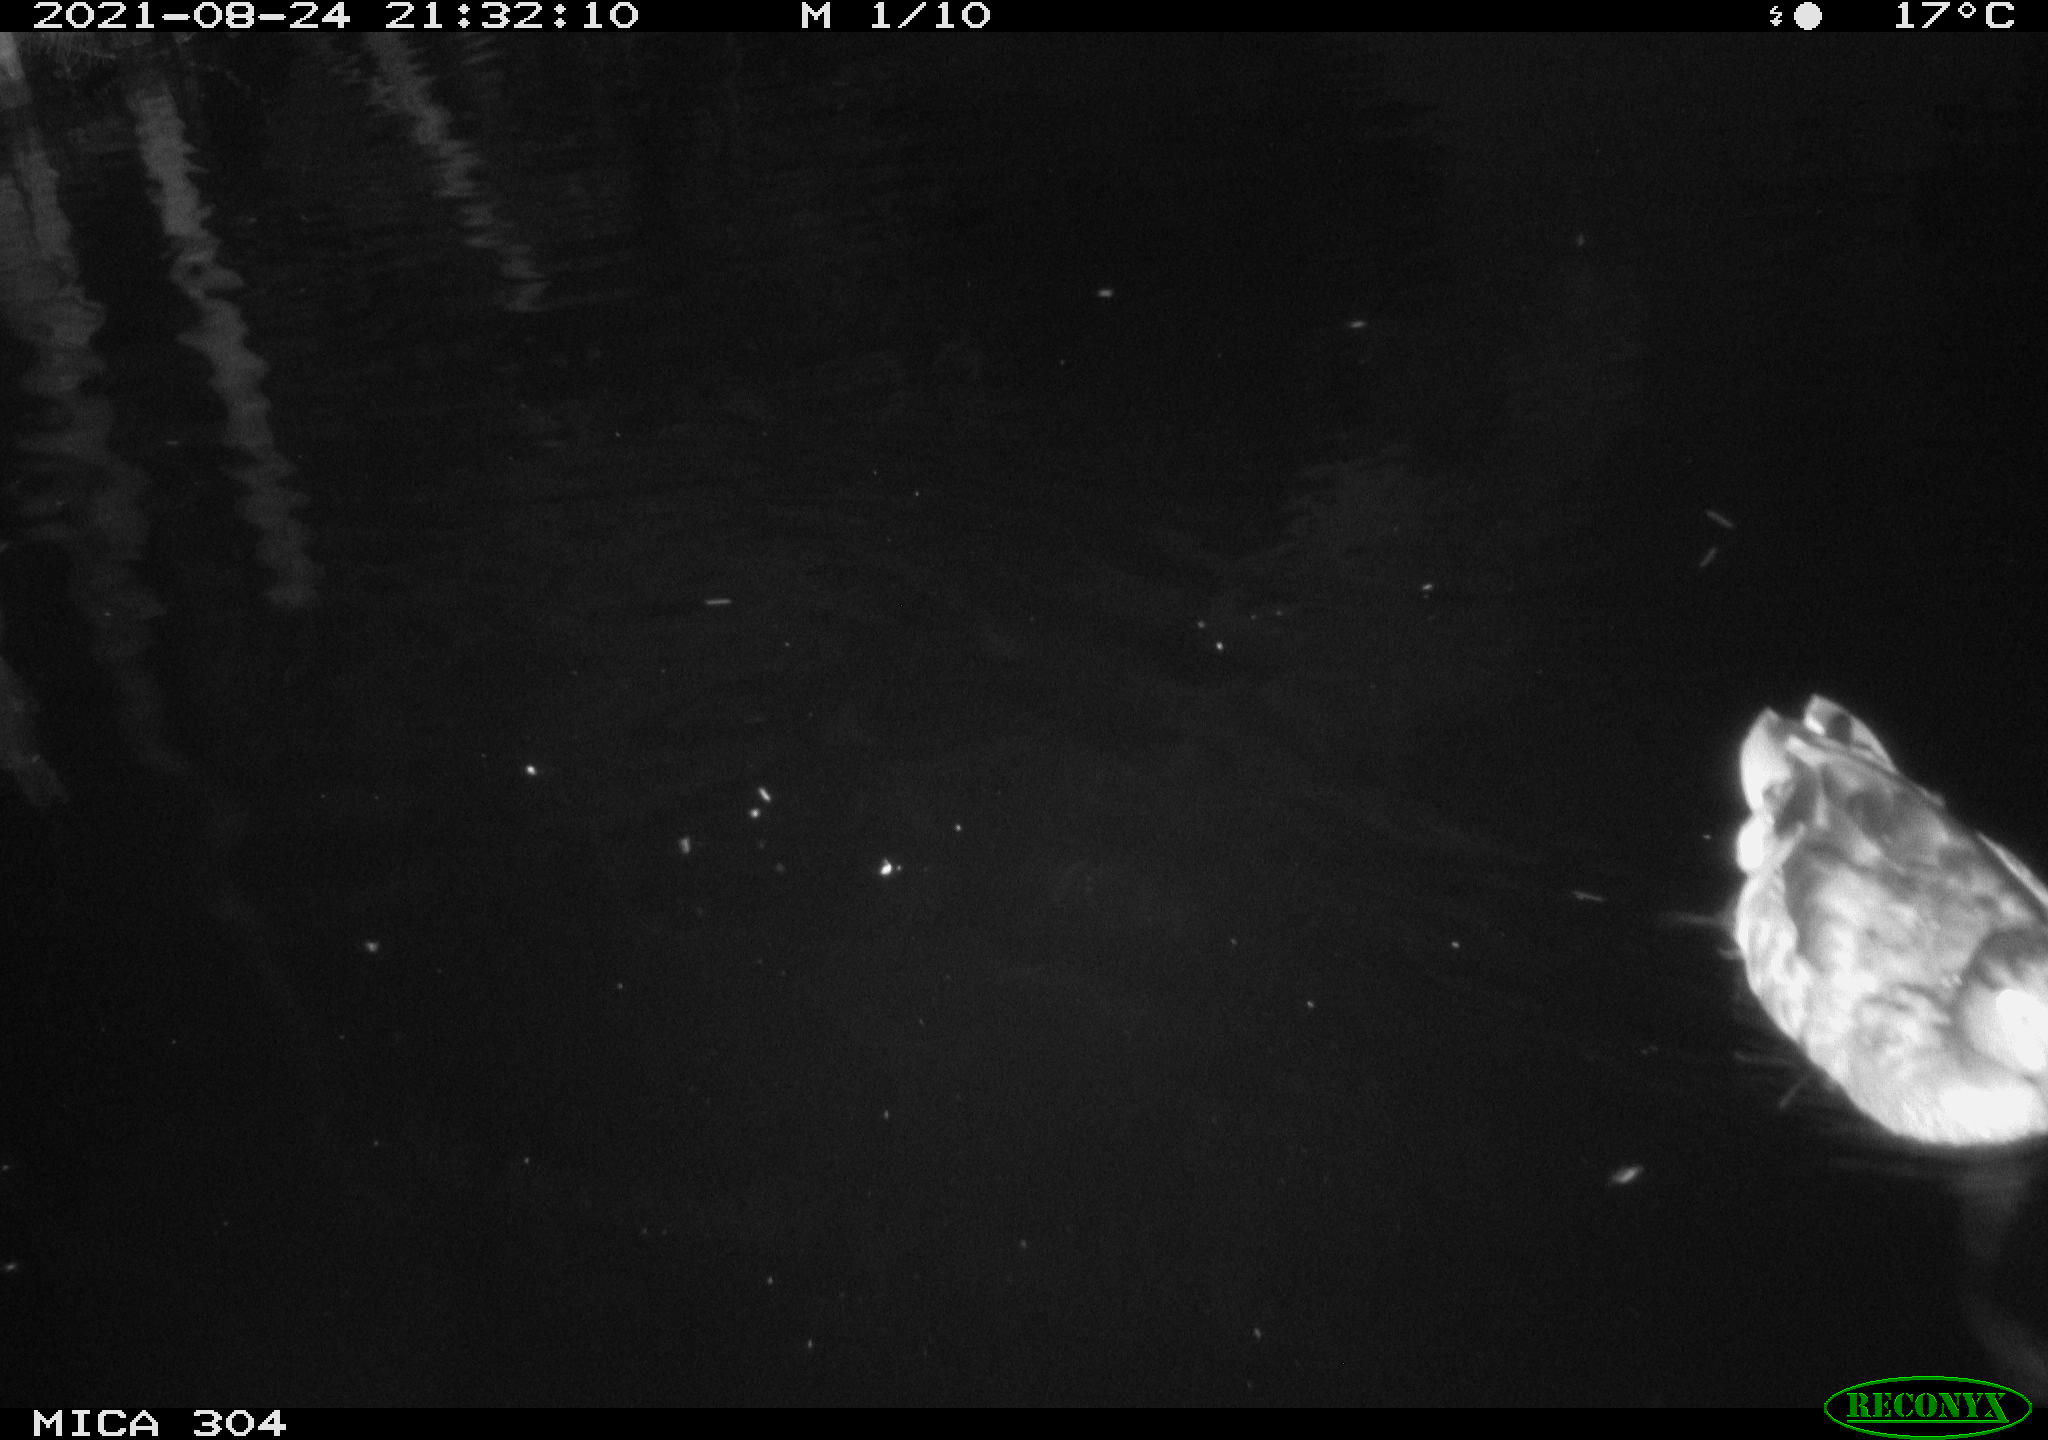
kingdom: Animalia
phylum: Chordata
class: Aves
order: Anseriformes
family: Anatidae
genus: Anas
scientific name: Anas platyrhynchos
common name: Mallard
